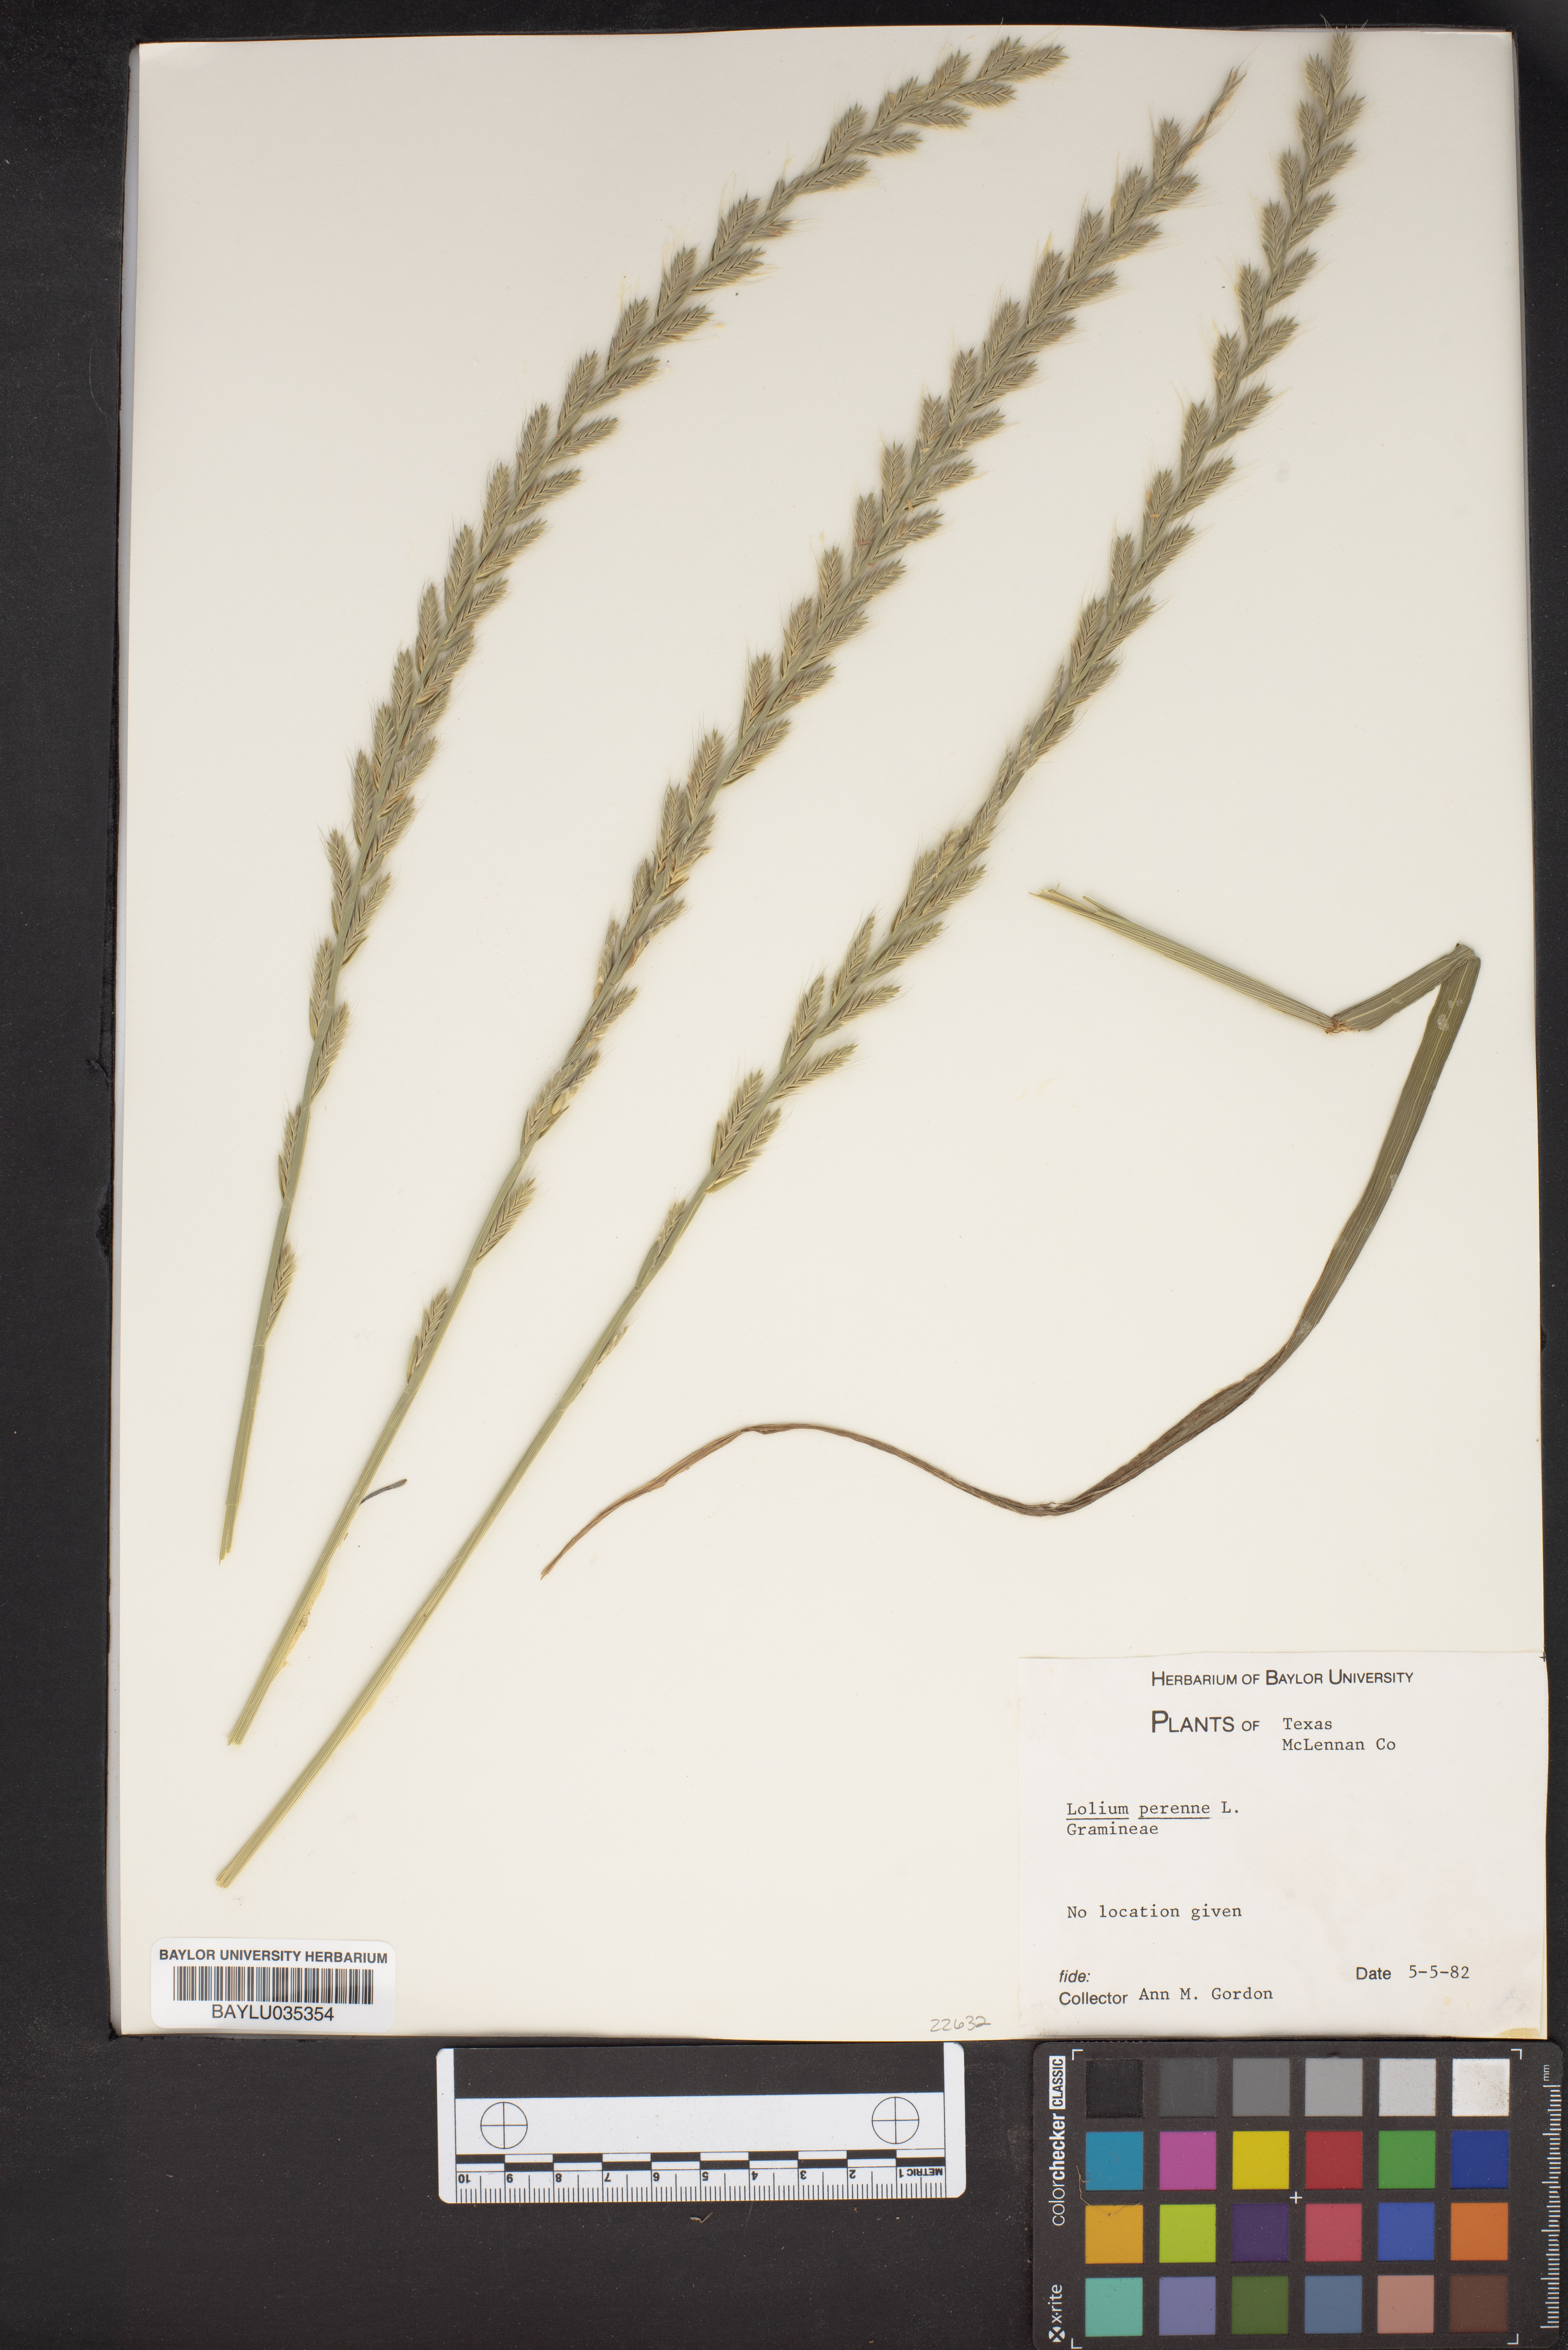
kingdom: Plantae
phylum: Tracheophyta
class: Liliopsida
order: Poales
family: Poaceae
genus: Lolium
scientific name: Lolium perenne
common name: Perennial ryegrass
